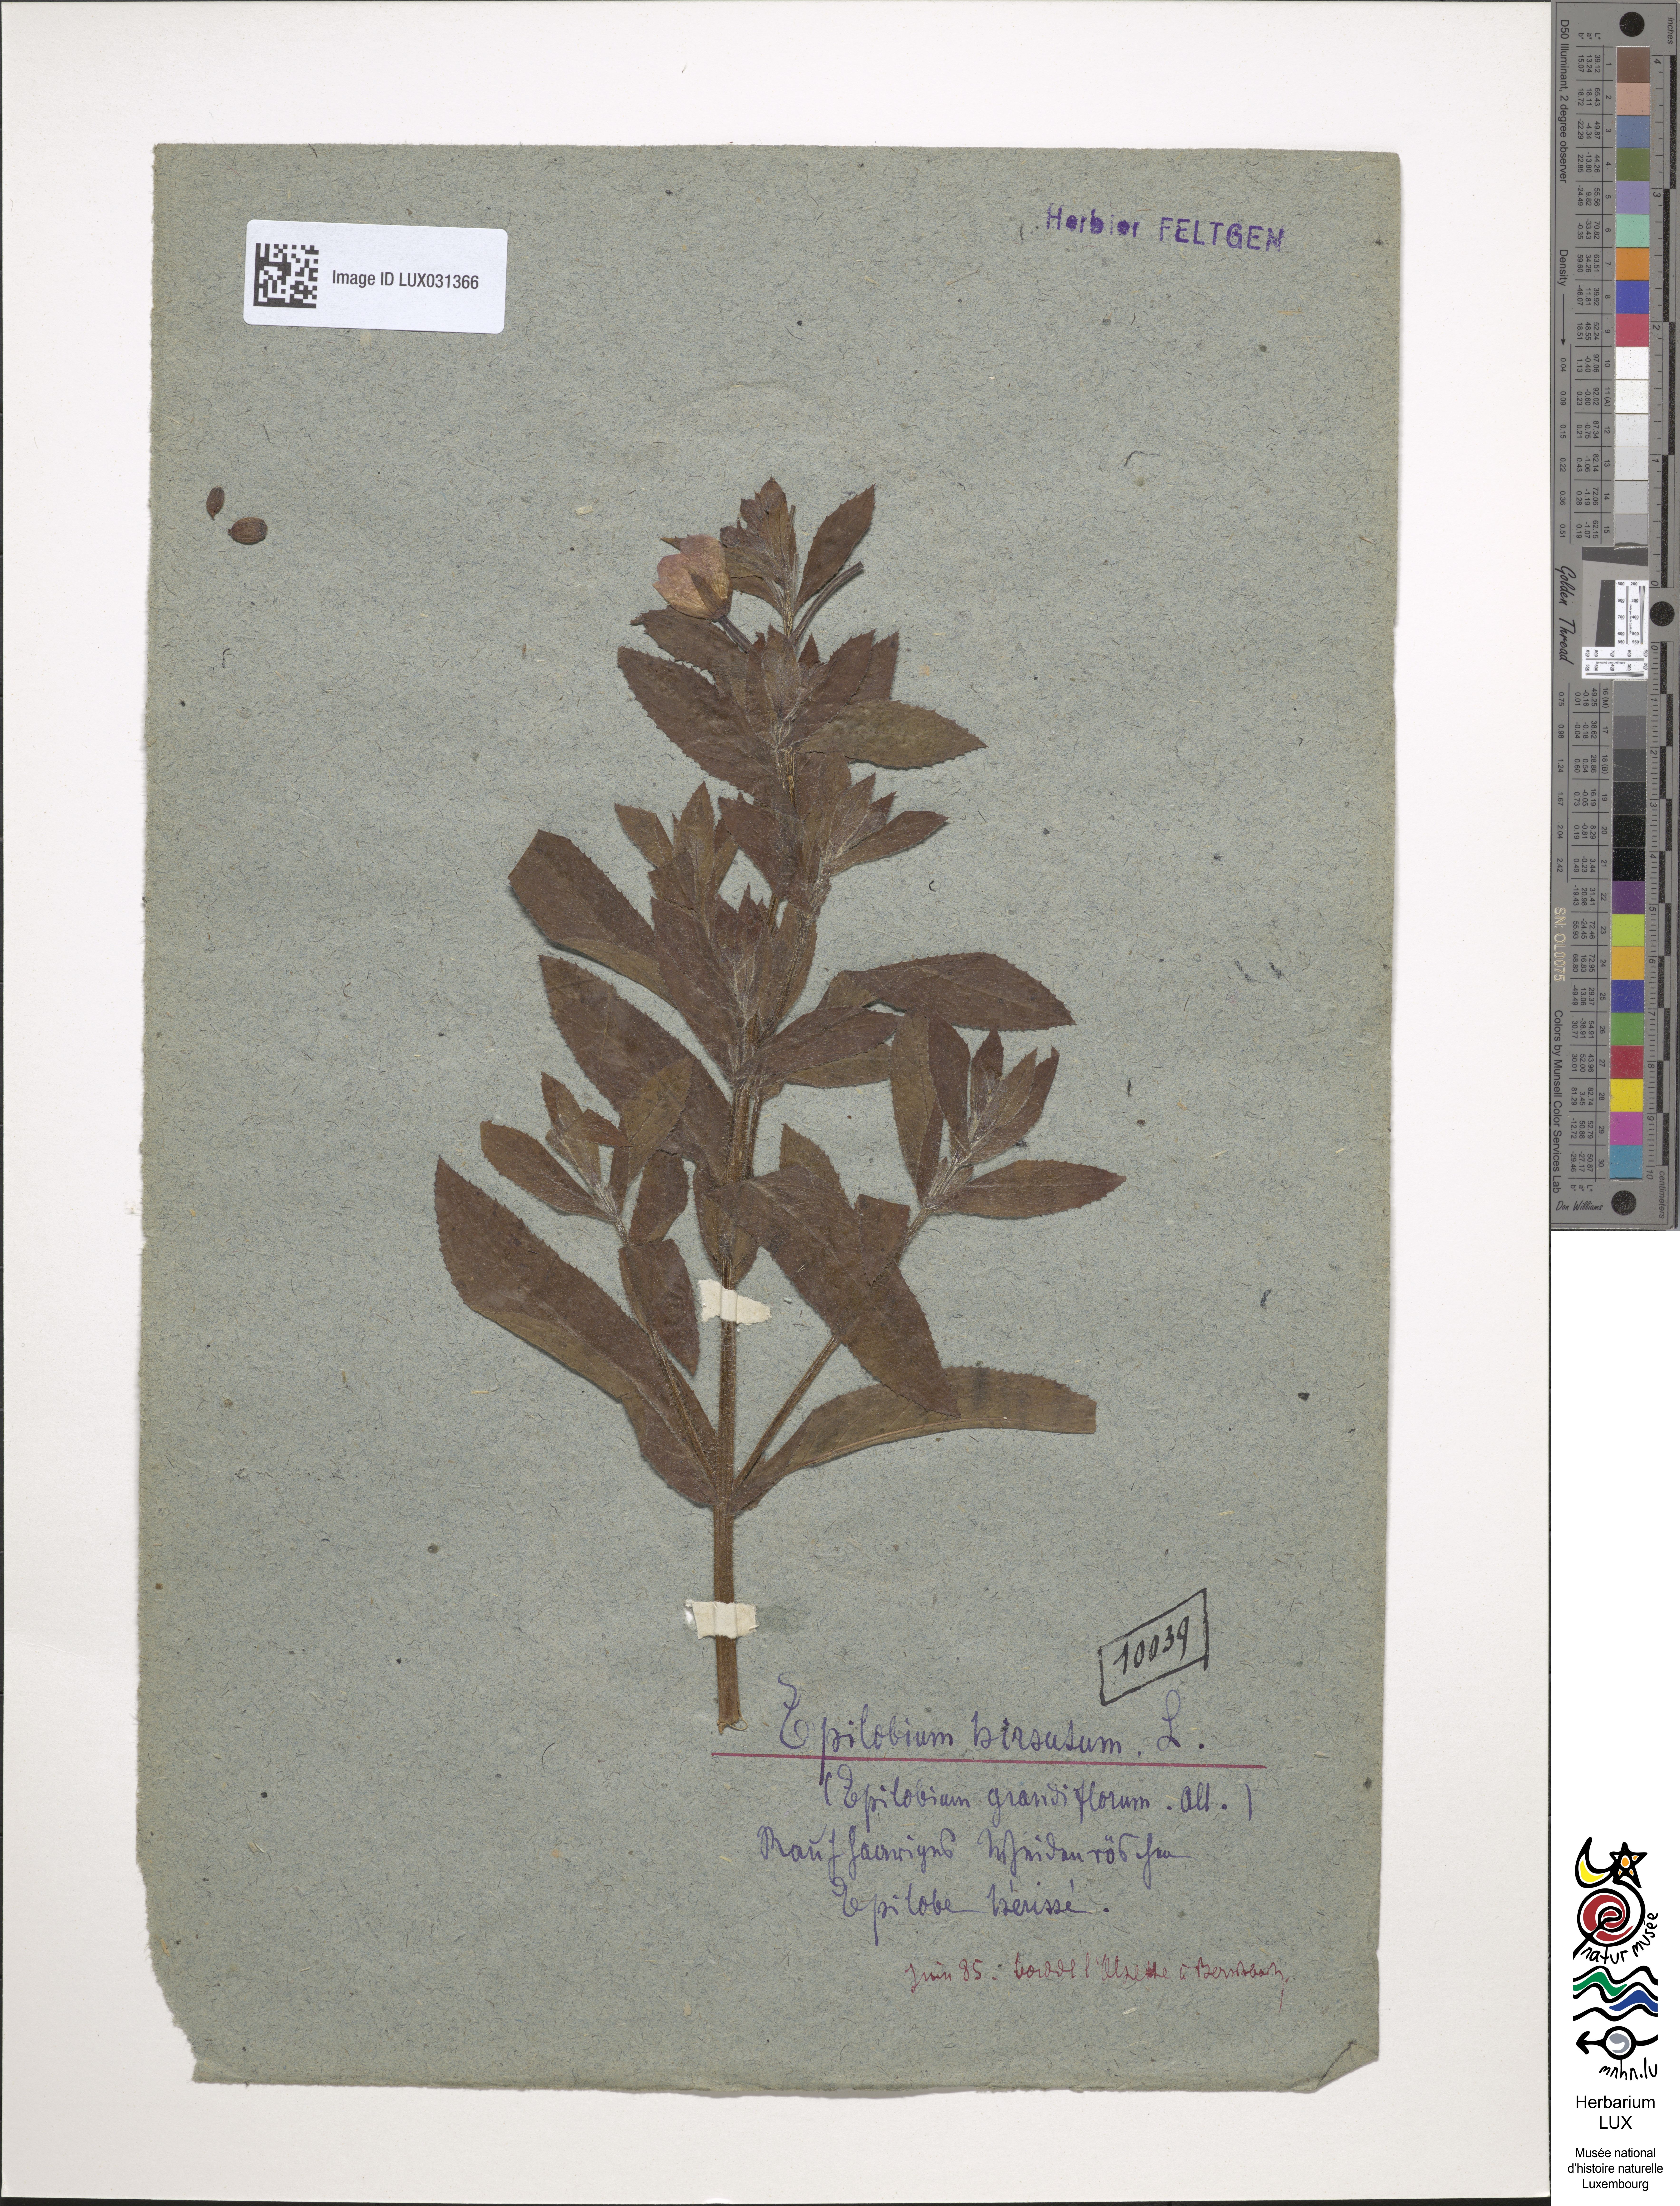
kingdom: Plantae
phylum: Tracheophyta
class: Magnoliopsida
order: Myrtales
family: Onagraceae
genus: Epilobium
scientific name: Epilobium hirsutum
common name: Great willowherb
